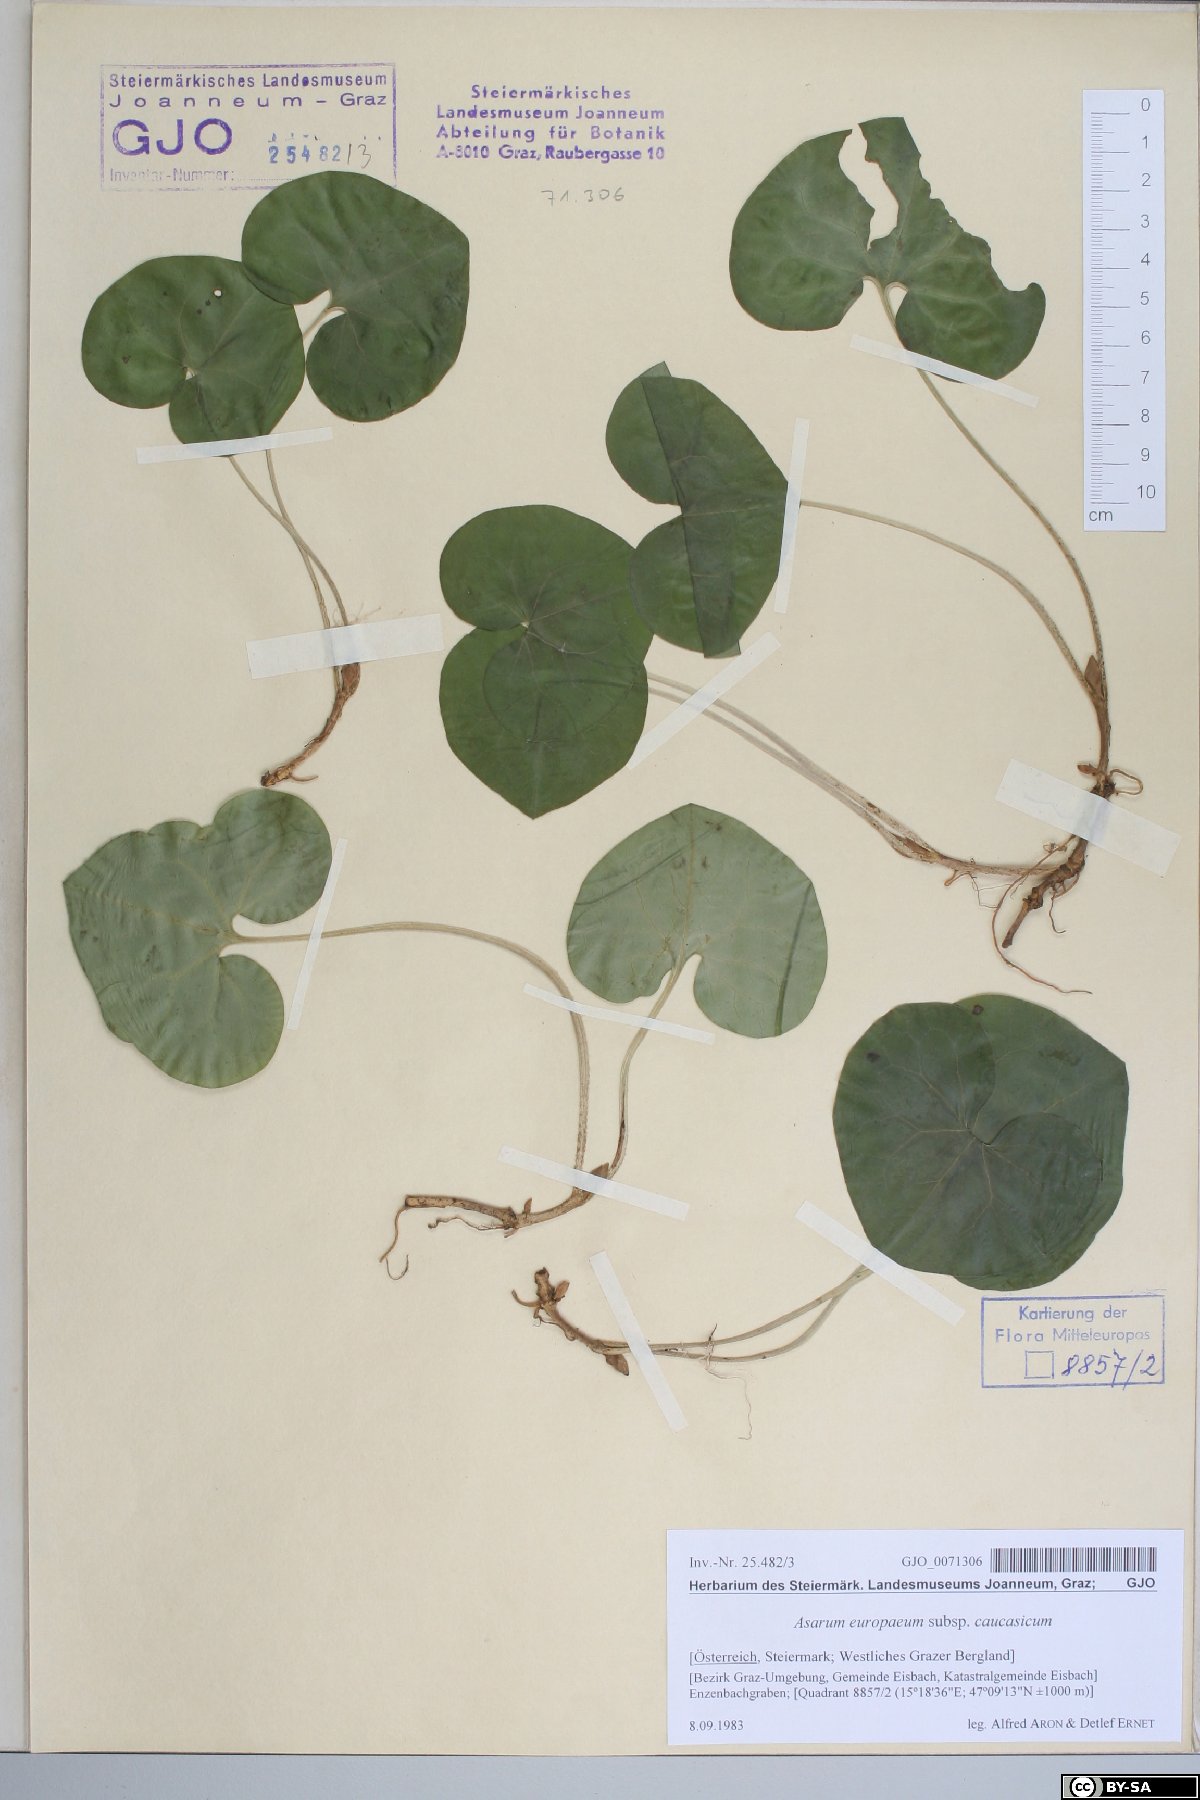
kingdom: Plantae
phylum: Tracheophyta
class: Magnoliopsida
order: Piperales
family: Aristolochiaceae
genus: Asarum
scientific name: Asarum europaeum
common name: Asarabacca
